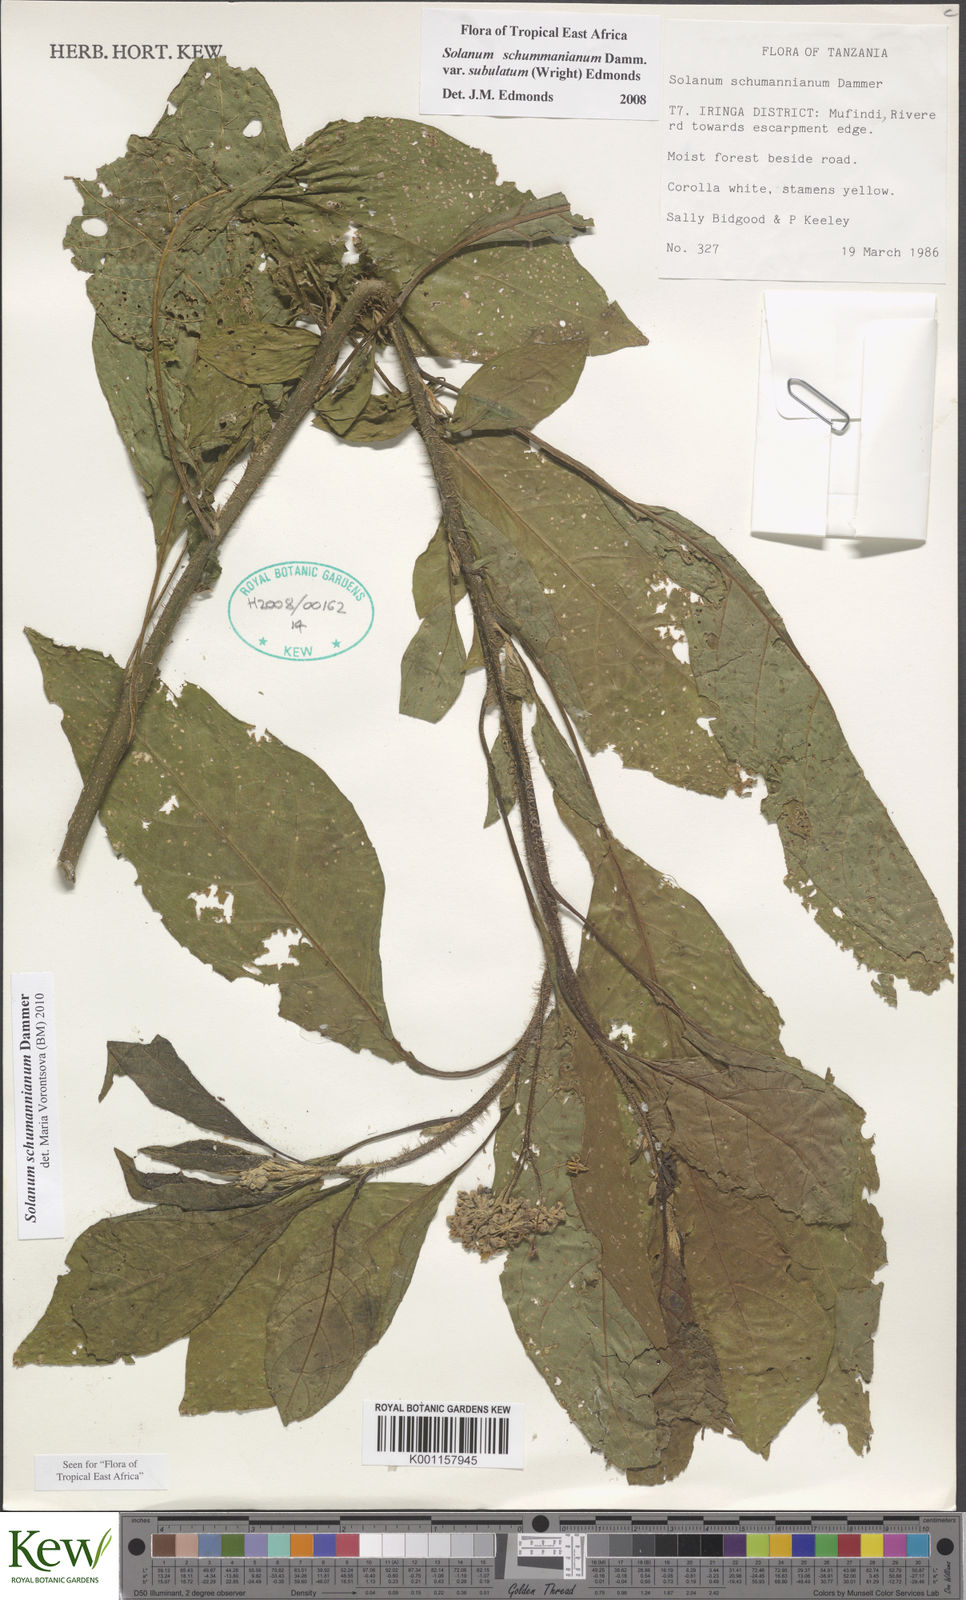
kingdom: Plantae
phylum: Tracheophyta
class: Magnoliopsida
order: Solanales
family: Solanaceae
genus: Solanum
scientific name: Solanum schumannianum
